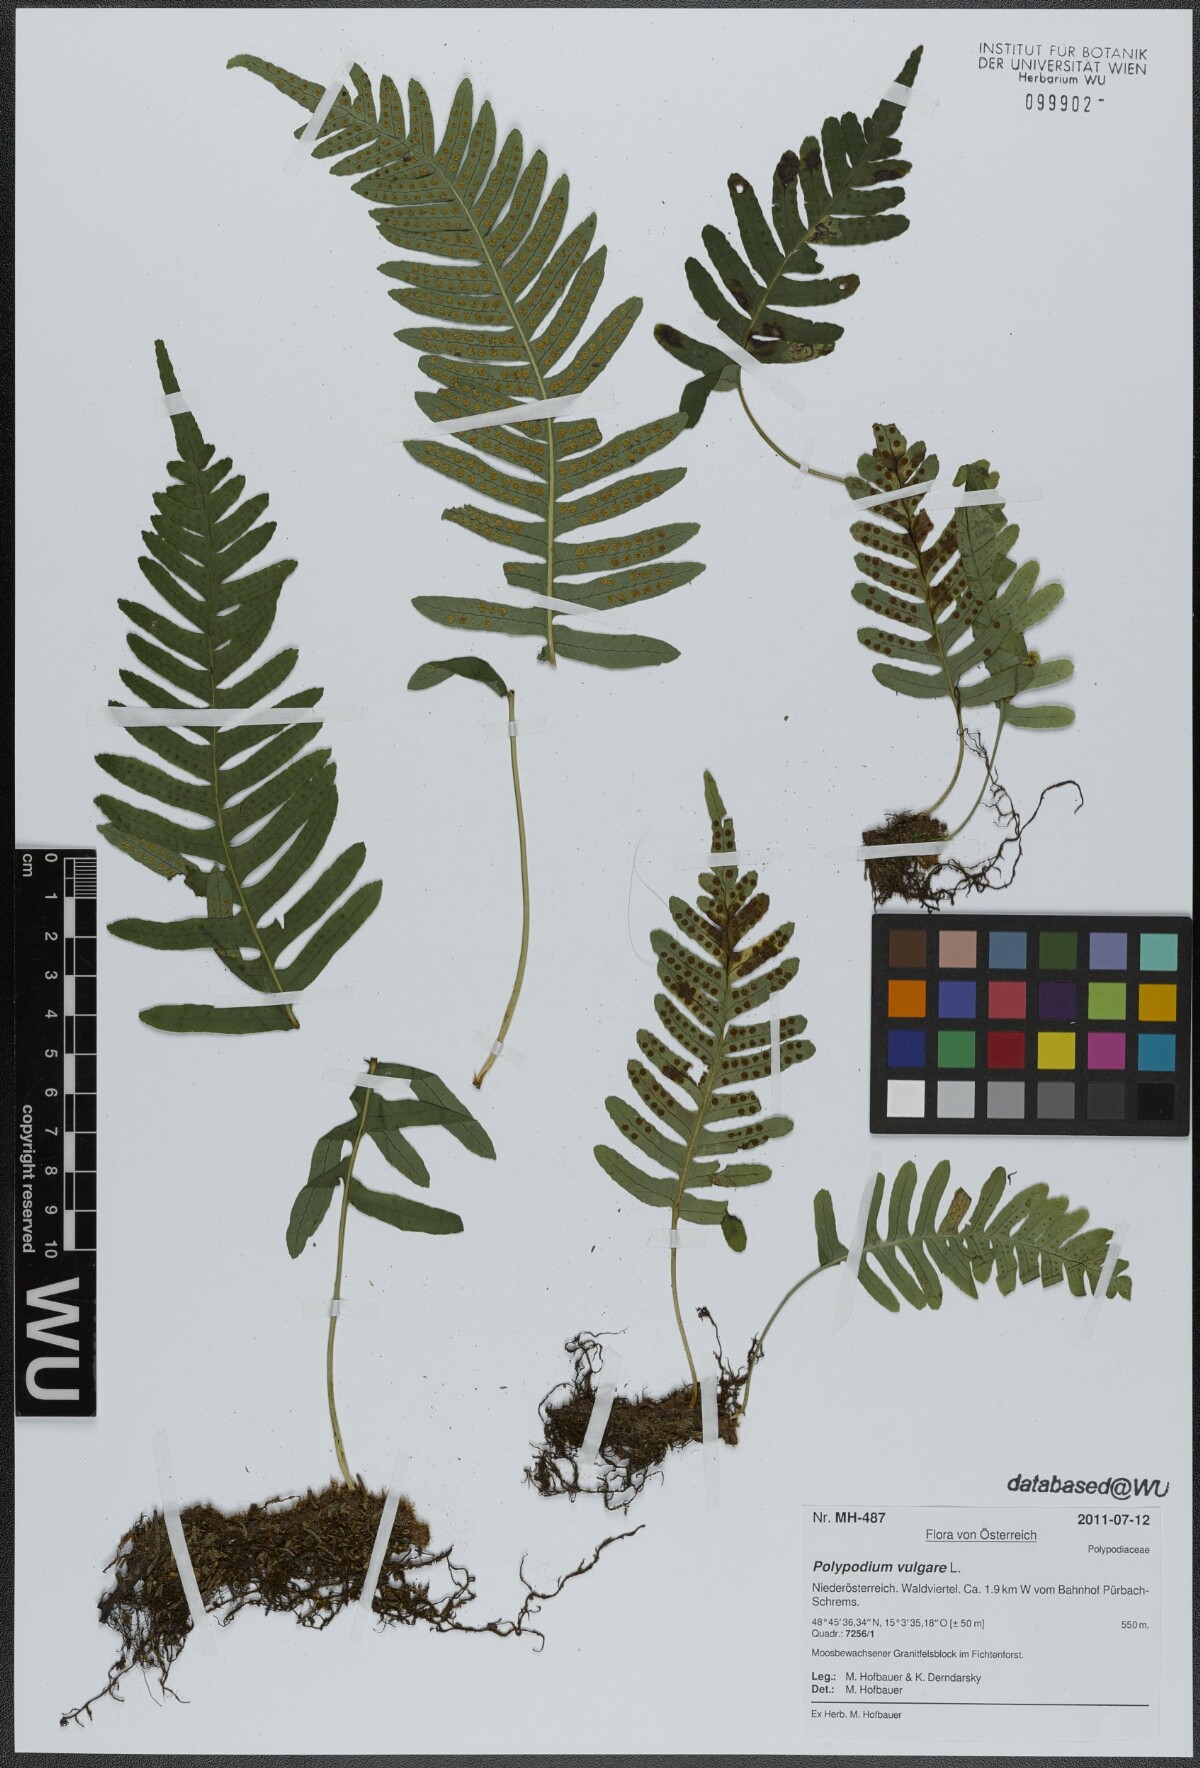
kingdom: Plantae
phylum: Tracheophyta
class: Polypodiopsida
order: Polypodiales
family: Polypodiaceae
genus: Polypodium
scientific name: Polypodium vulgare
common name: Common polypody
